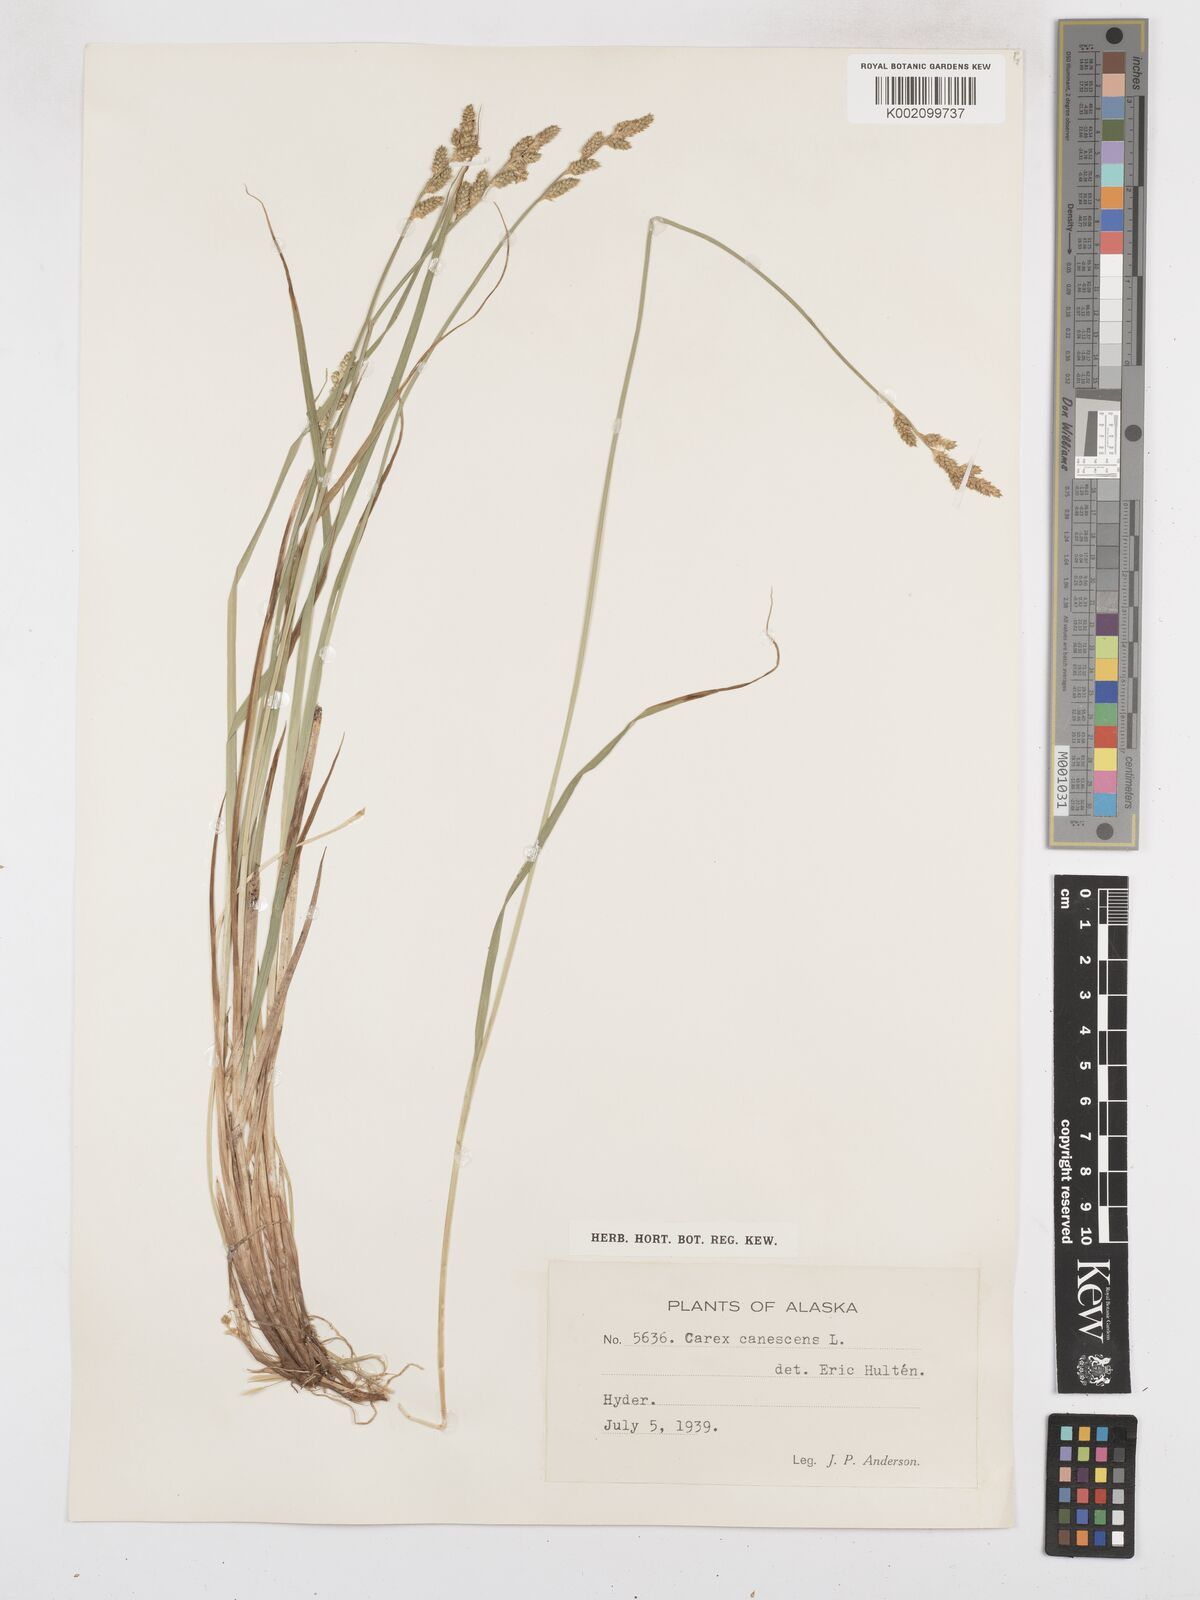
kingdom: Plantae
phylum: Tracheophyta
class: Liliopsida
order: Poales
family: Cyperaceae
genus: Carex
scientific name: Carex curta
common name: White sedge
